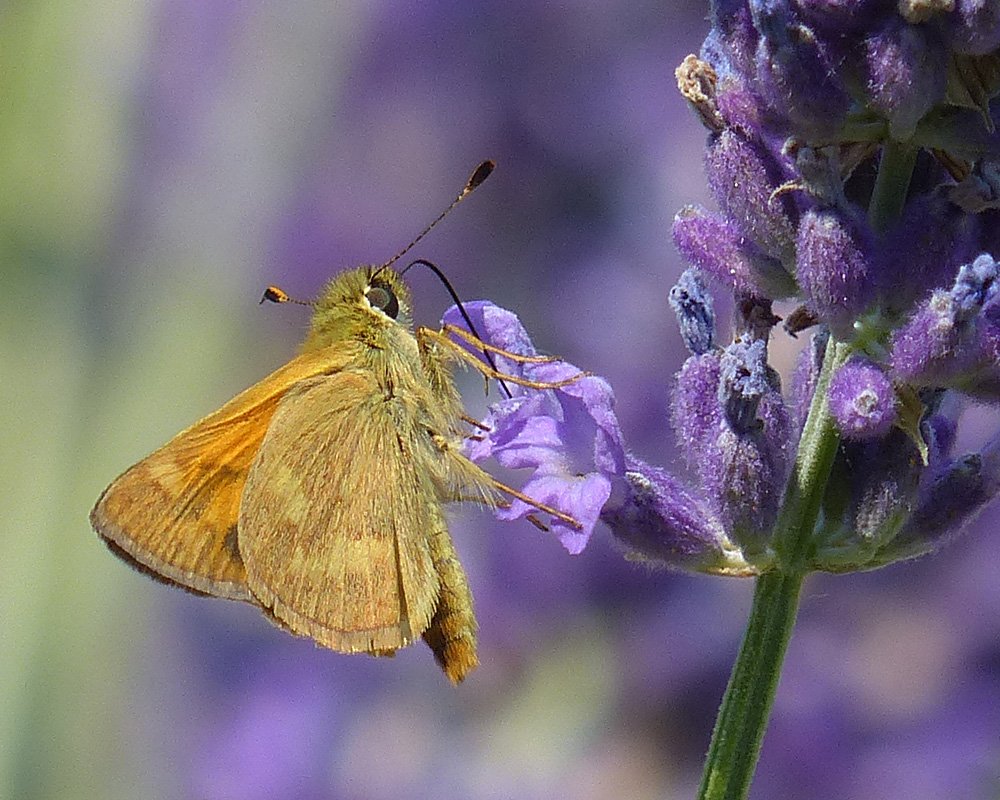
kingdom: Animalia
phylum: Arthropoda
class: Insecta
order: Lepidoptera
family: Hesperiidae
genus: Ochlodes
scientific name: Ochlodes sylvanoides
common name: Woodland Skipper
